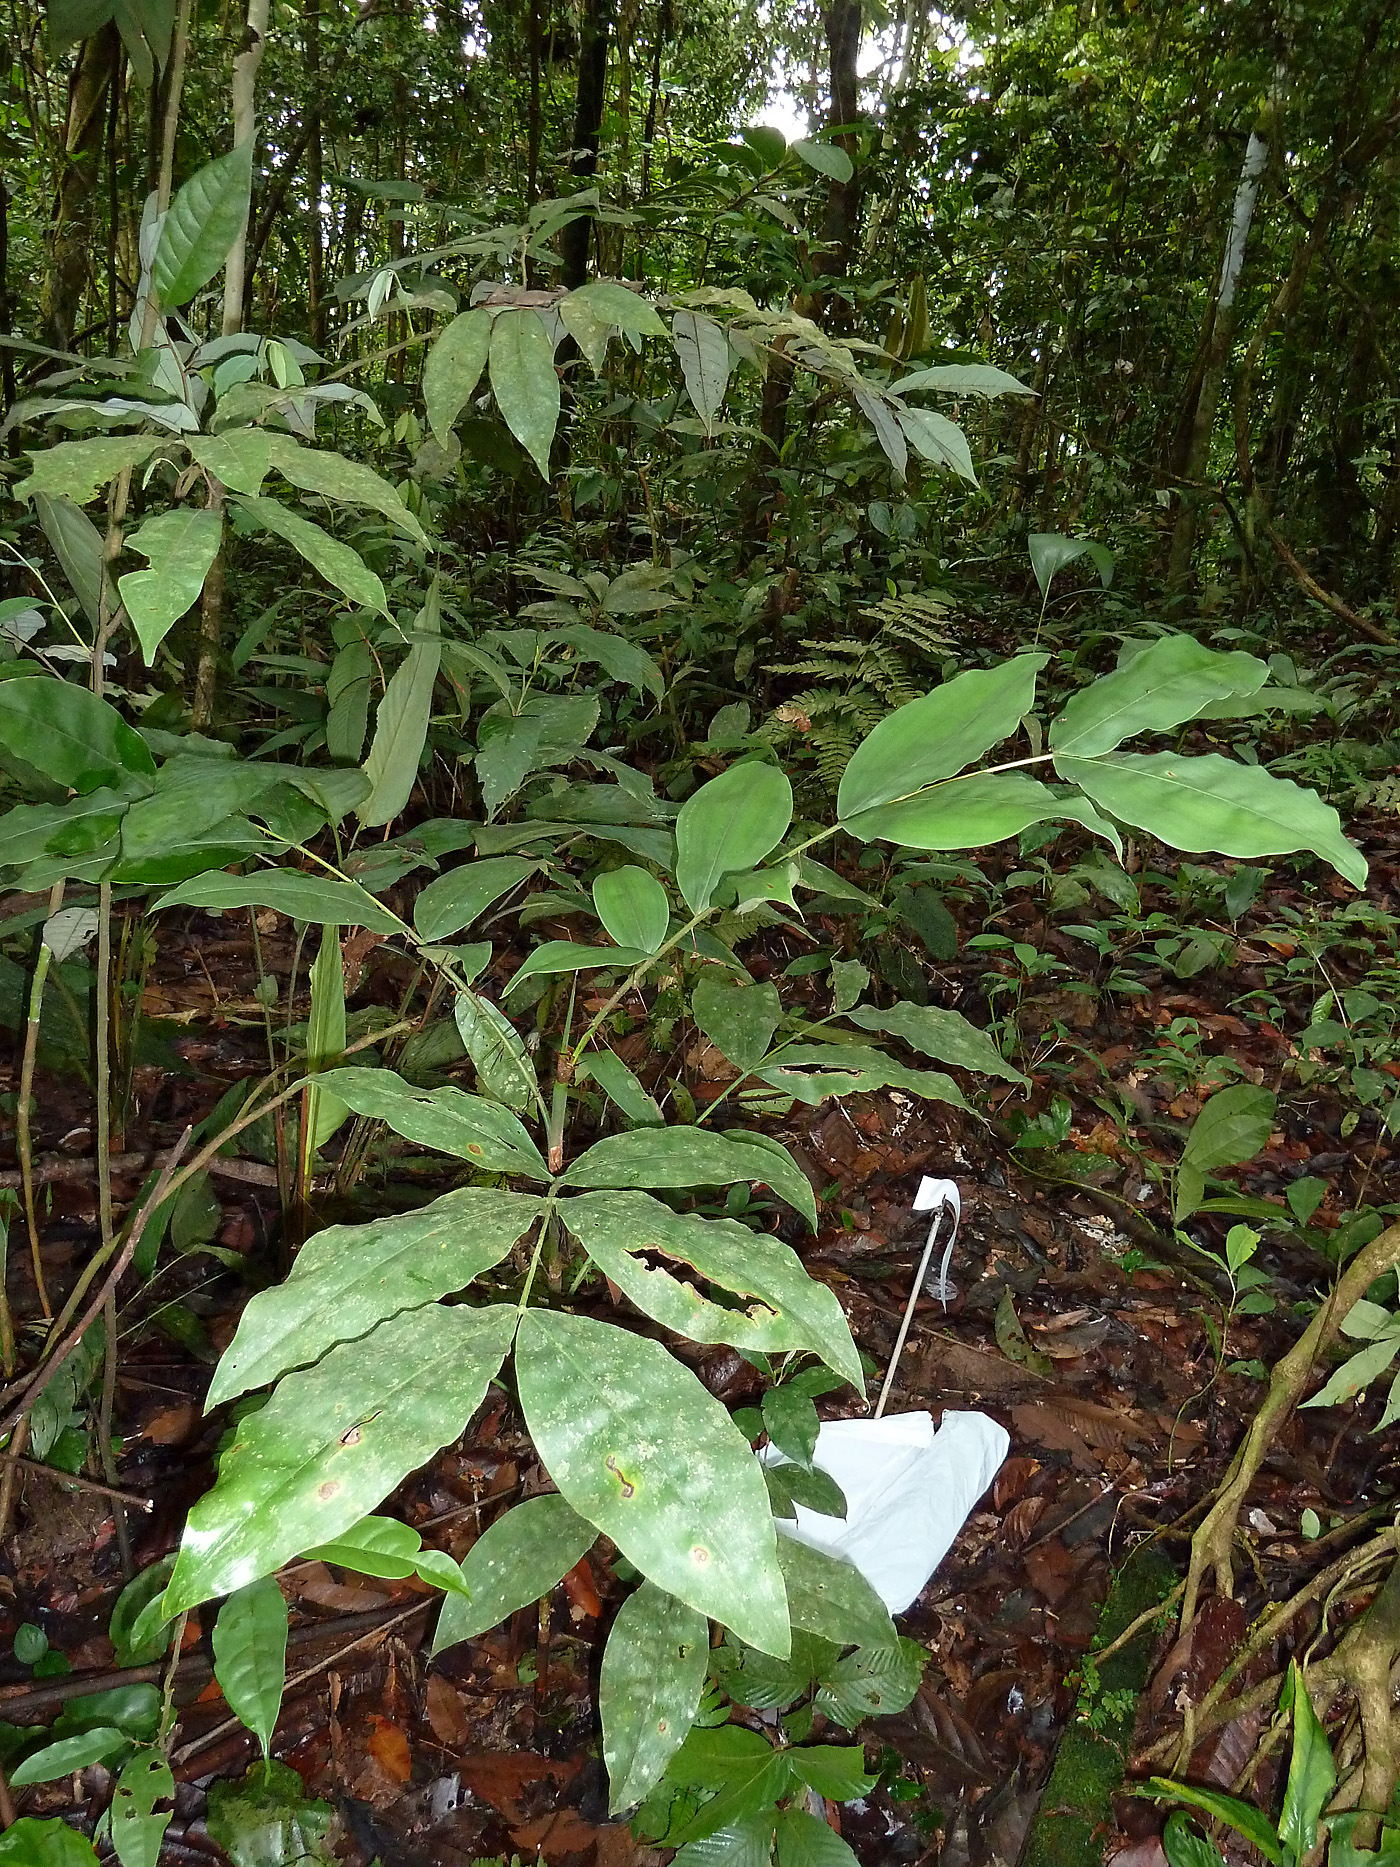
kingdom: Plantae
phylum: Tracheophyta
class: Liliopsida
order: Arecales
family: Arecaceae
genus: Desmoncus
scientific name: Desmoncus giganteus
